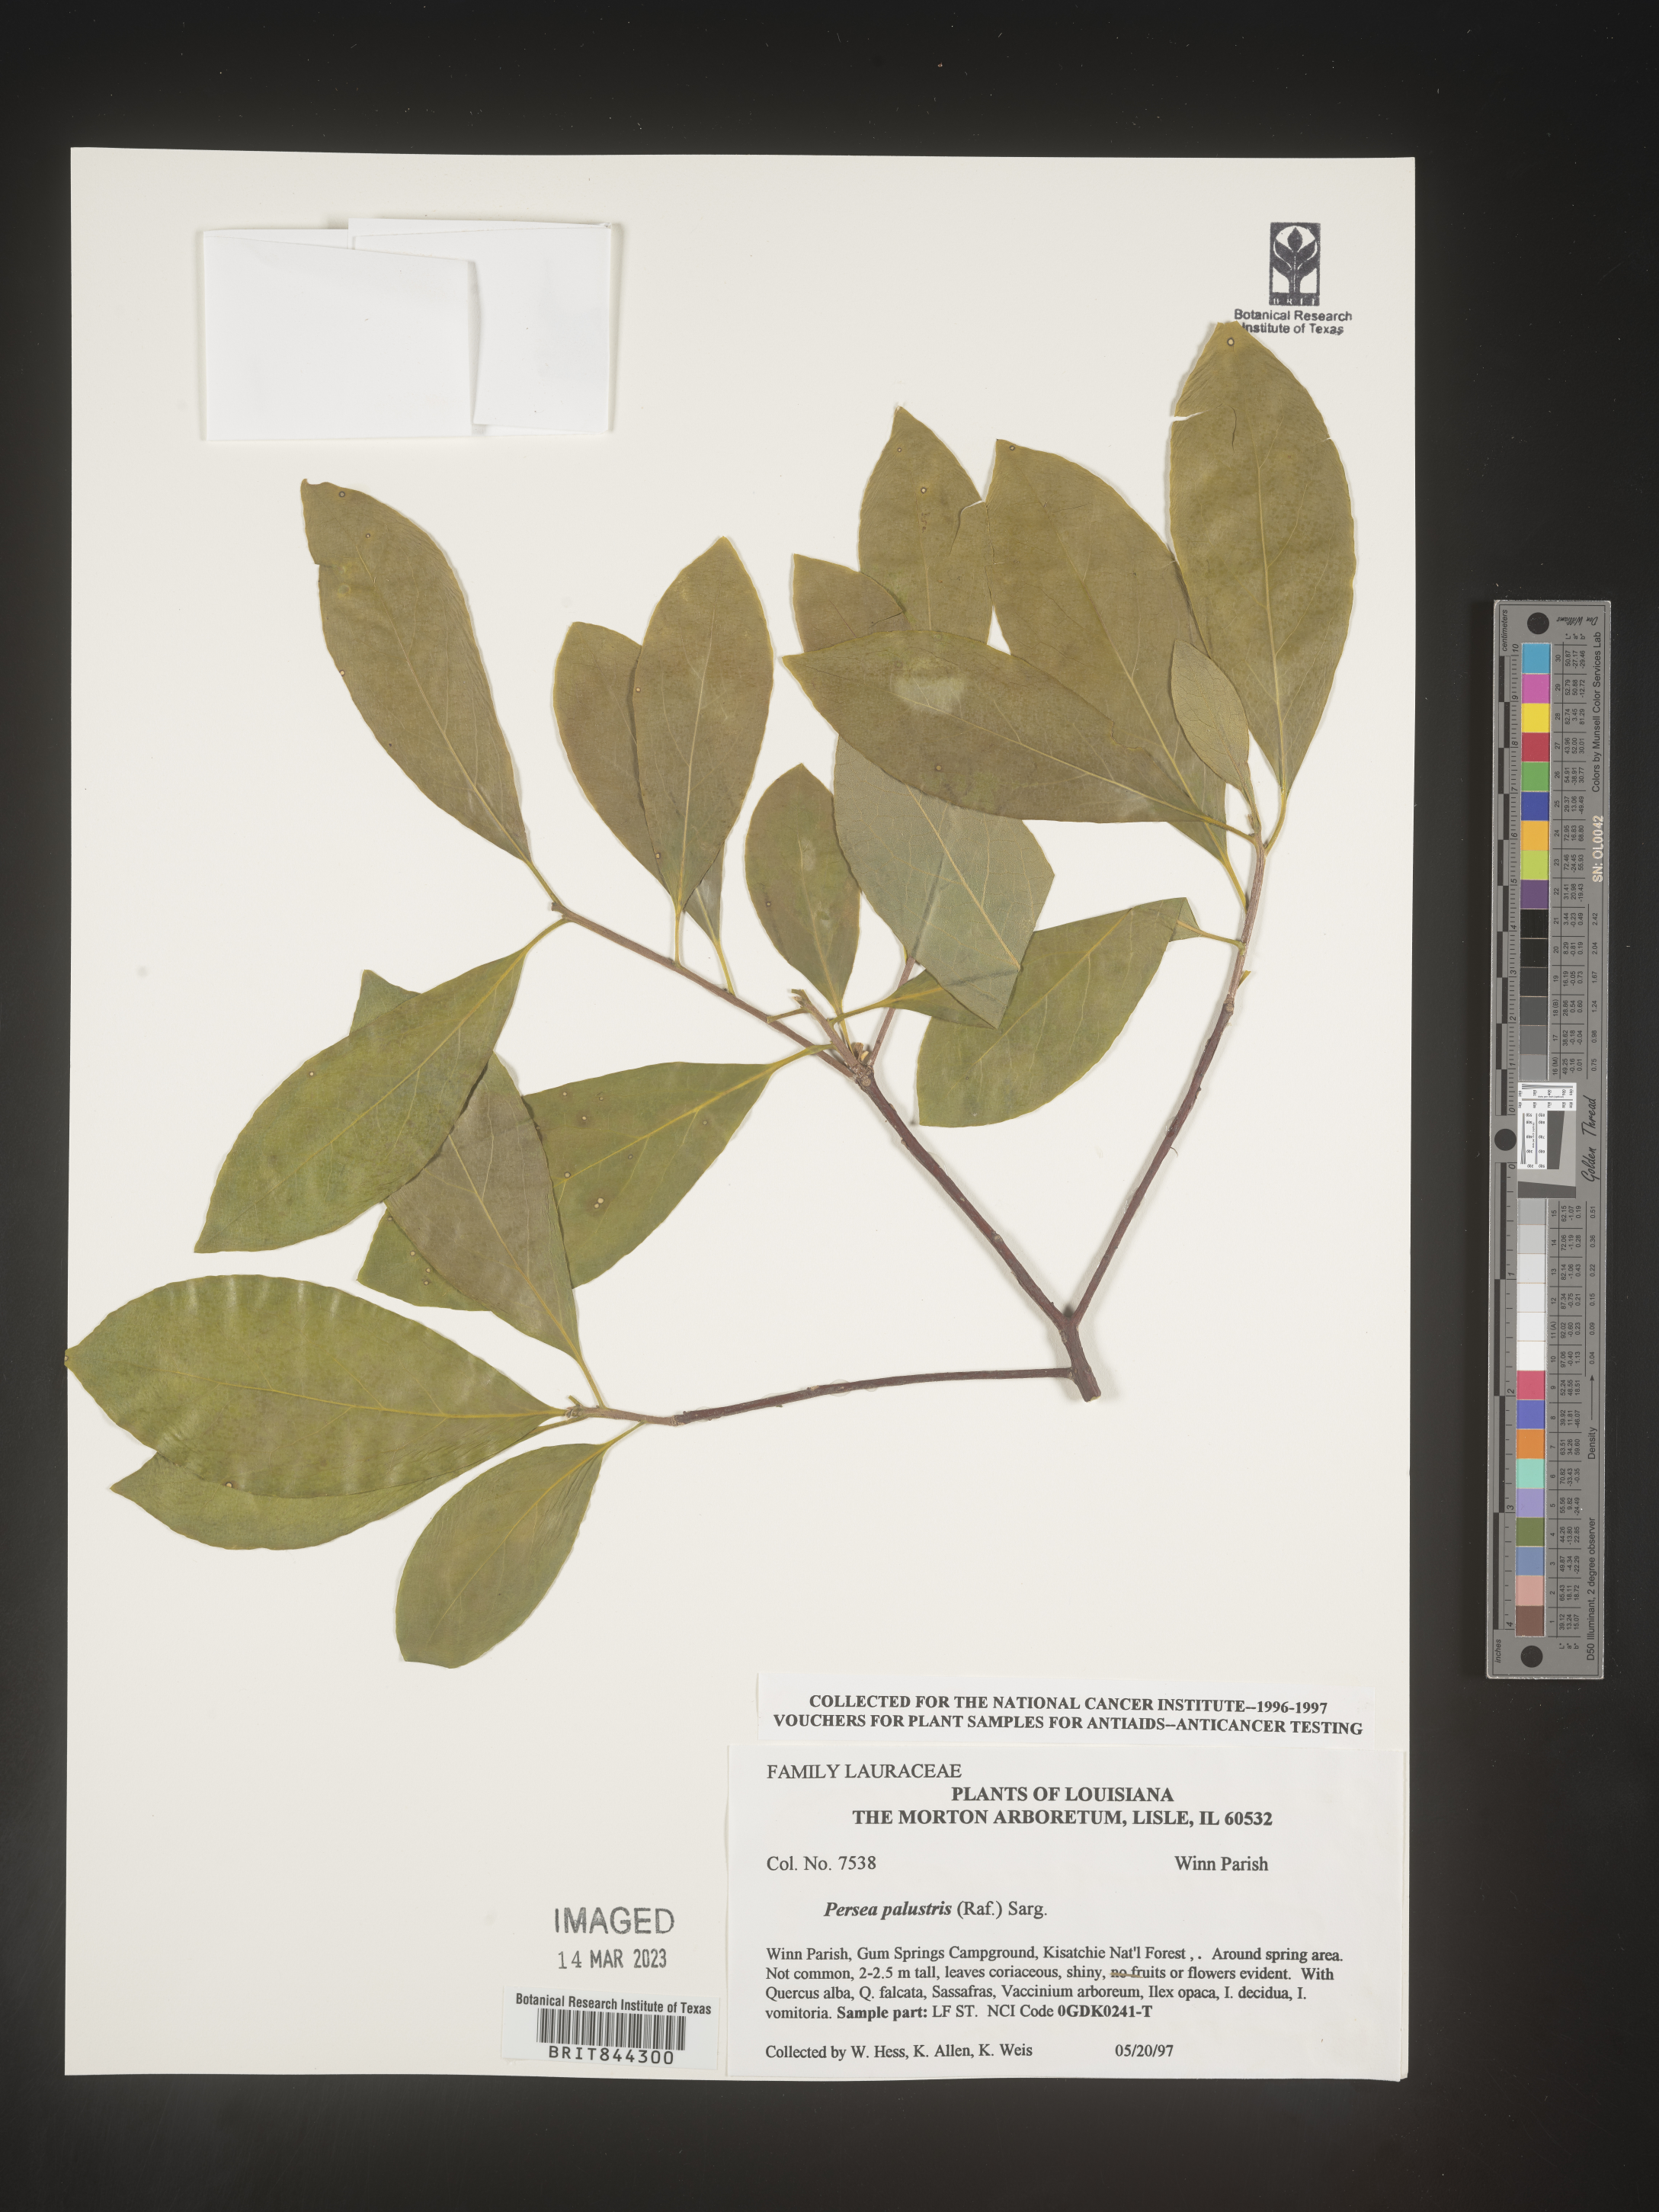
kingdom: Plantae
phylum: Tracheophyta
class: Magnoliopsida
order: Laurales
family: Lauraceae
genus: Persea
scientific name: Persea palustris
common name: Swampbay
